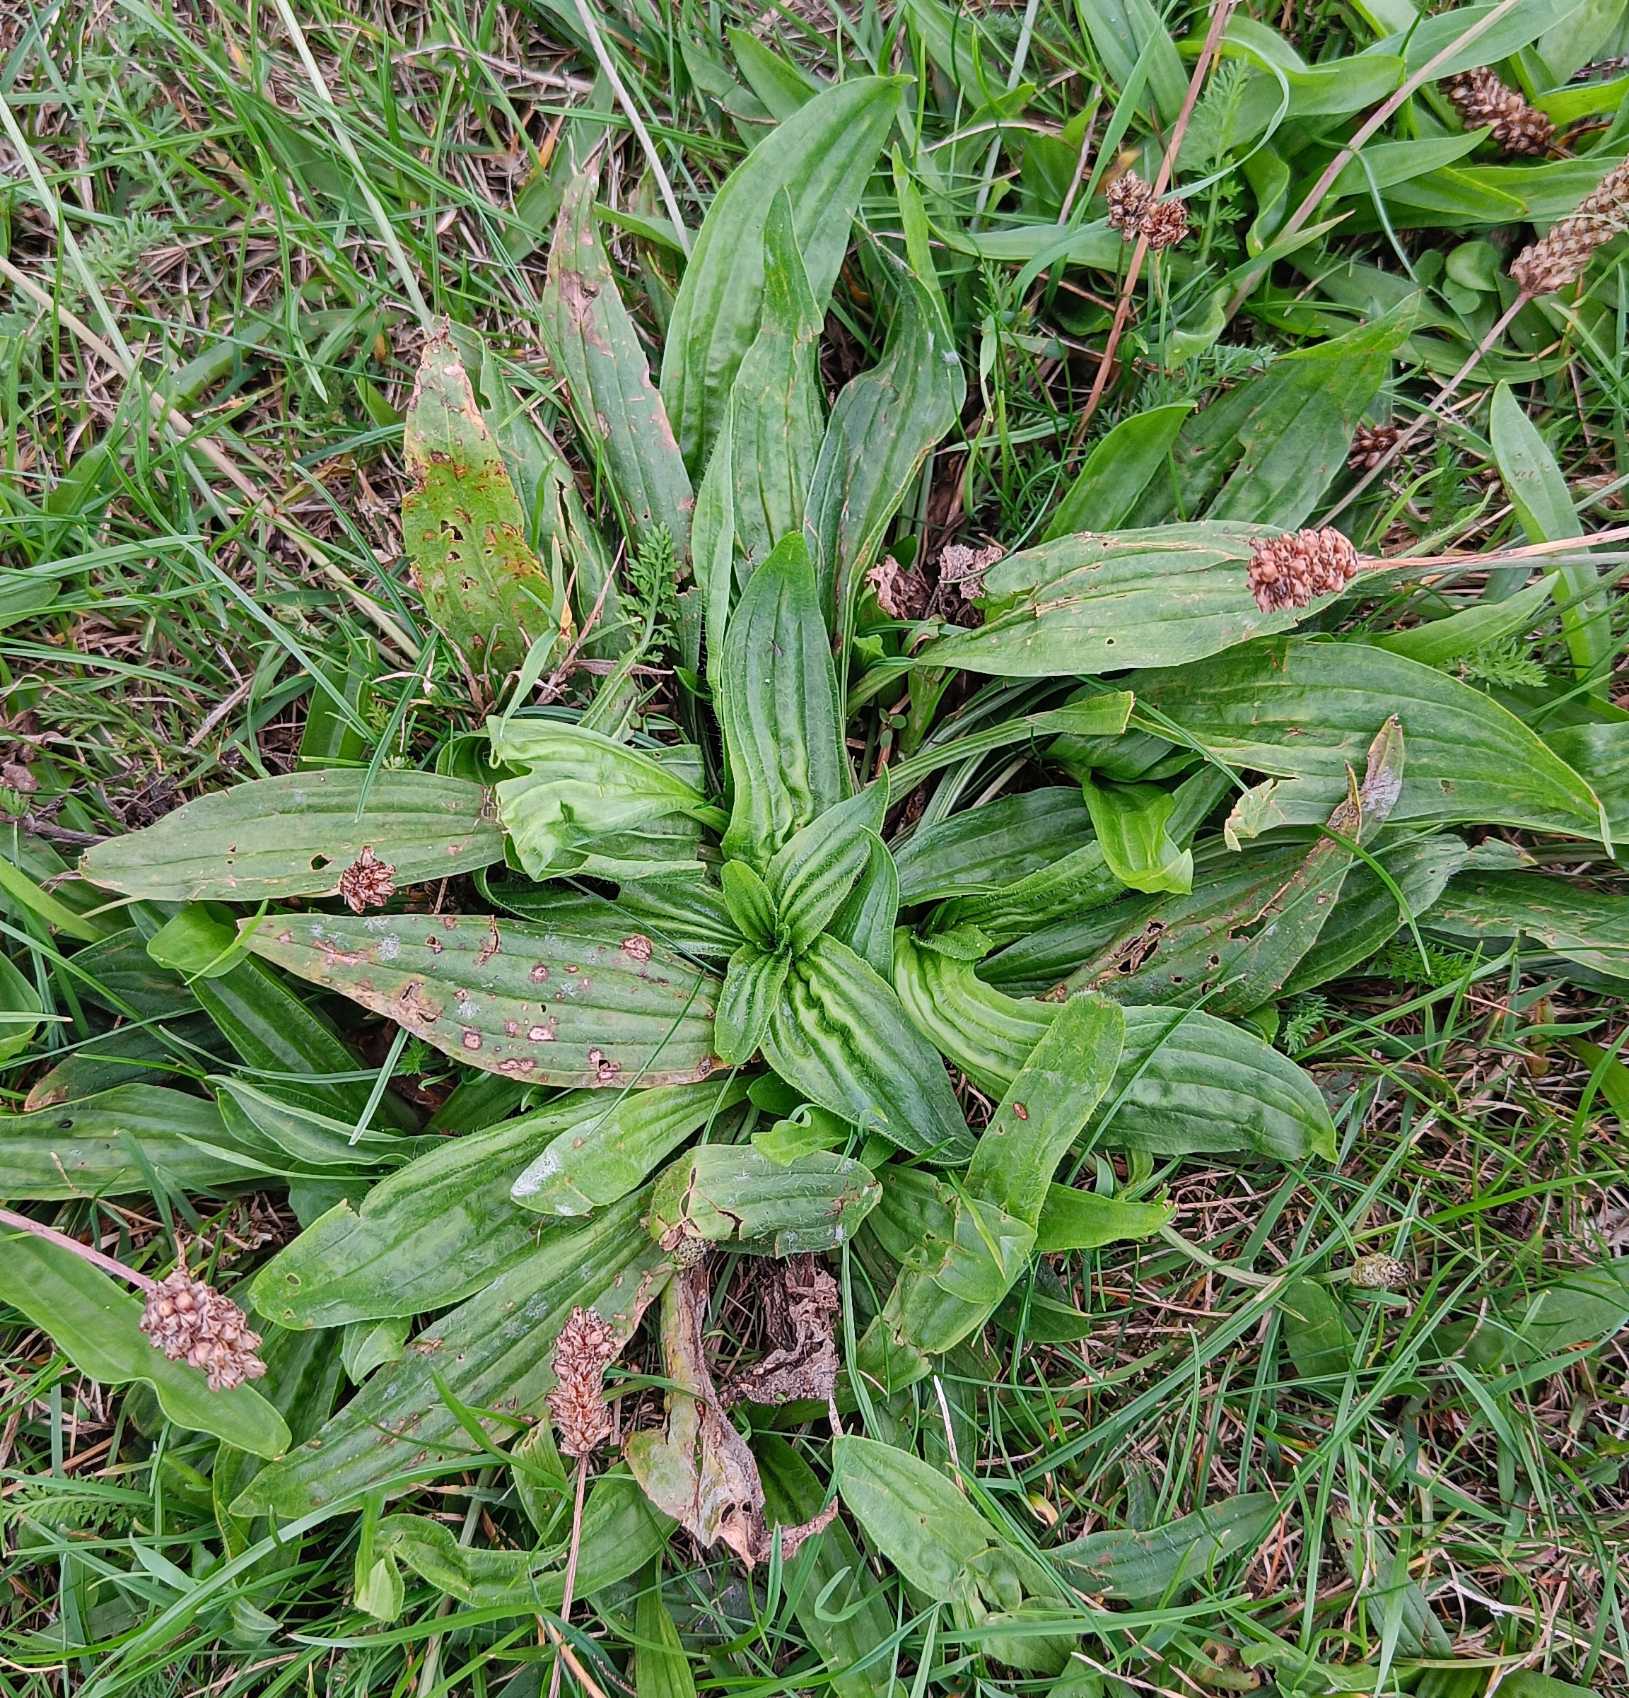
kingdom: Plantae
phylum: Tracheophyta
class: Magnoliopsida
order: Lamiales
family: Plantaginaceae
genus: Plantago
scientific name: Plantago lanceolata
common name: Lancet-vejbred
